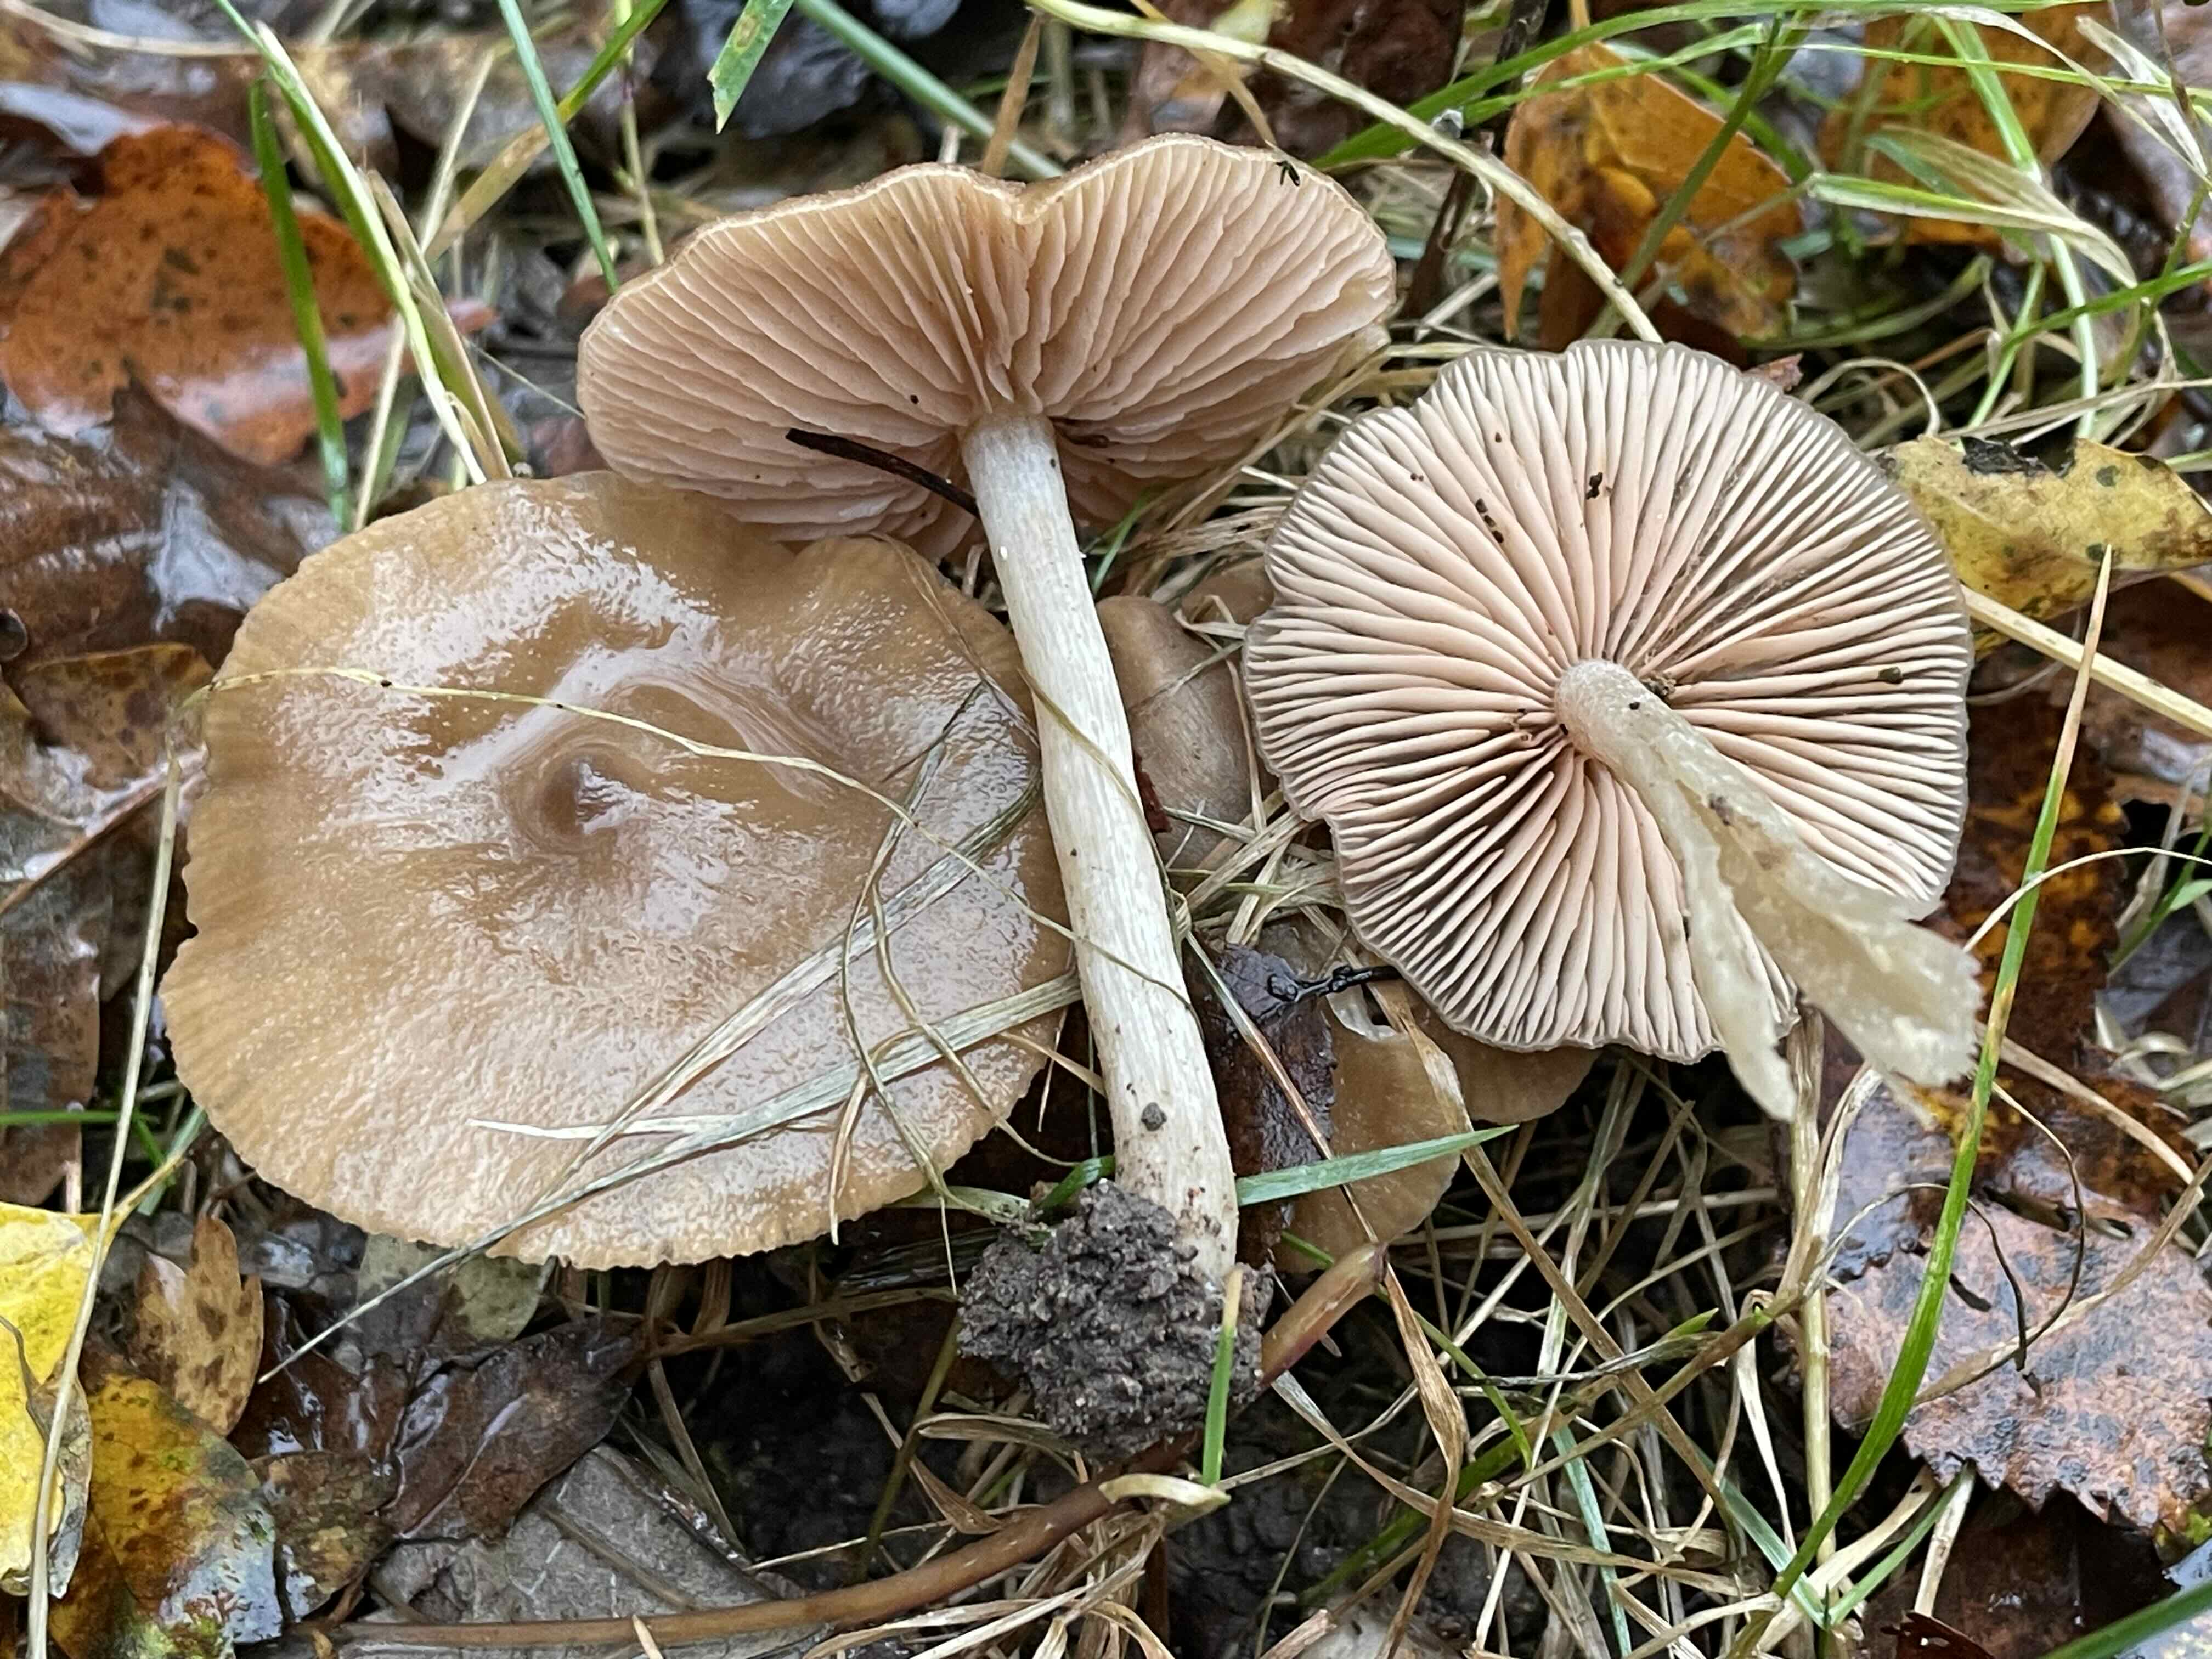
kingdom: Fungi
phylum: Basidiomycota
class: Agaricomycetes
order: Agaricales
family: Entolomataceae
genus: Entoloma
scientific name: Entoloma
